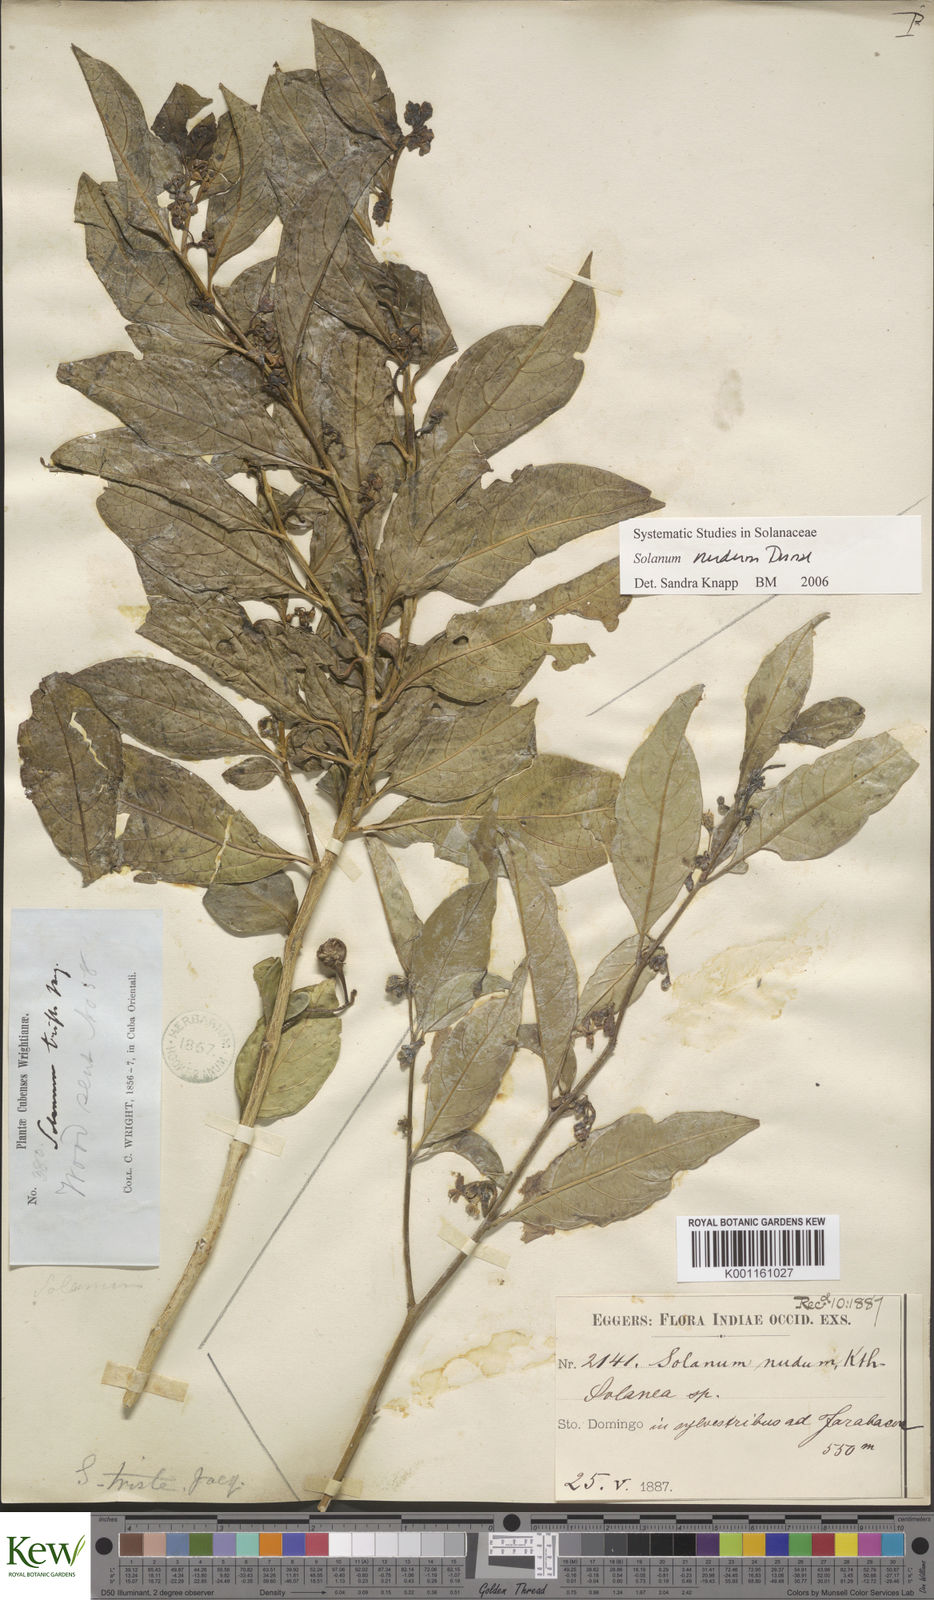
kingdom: Plantae
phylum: Tracheophyta
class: Magnoliopsida
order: Solanales
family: Solanaceae
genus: Solanum
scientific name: Solanum nudum
